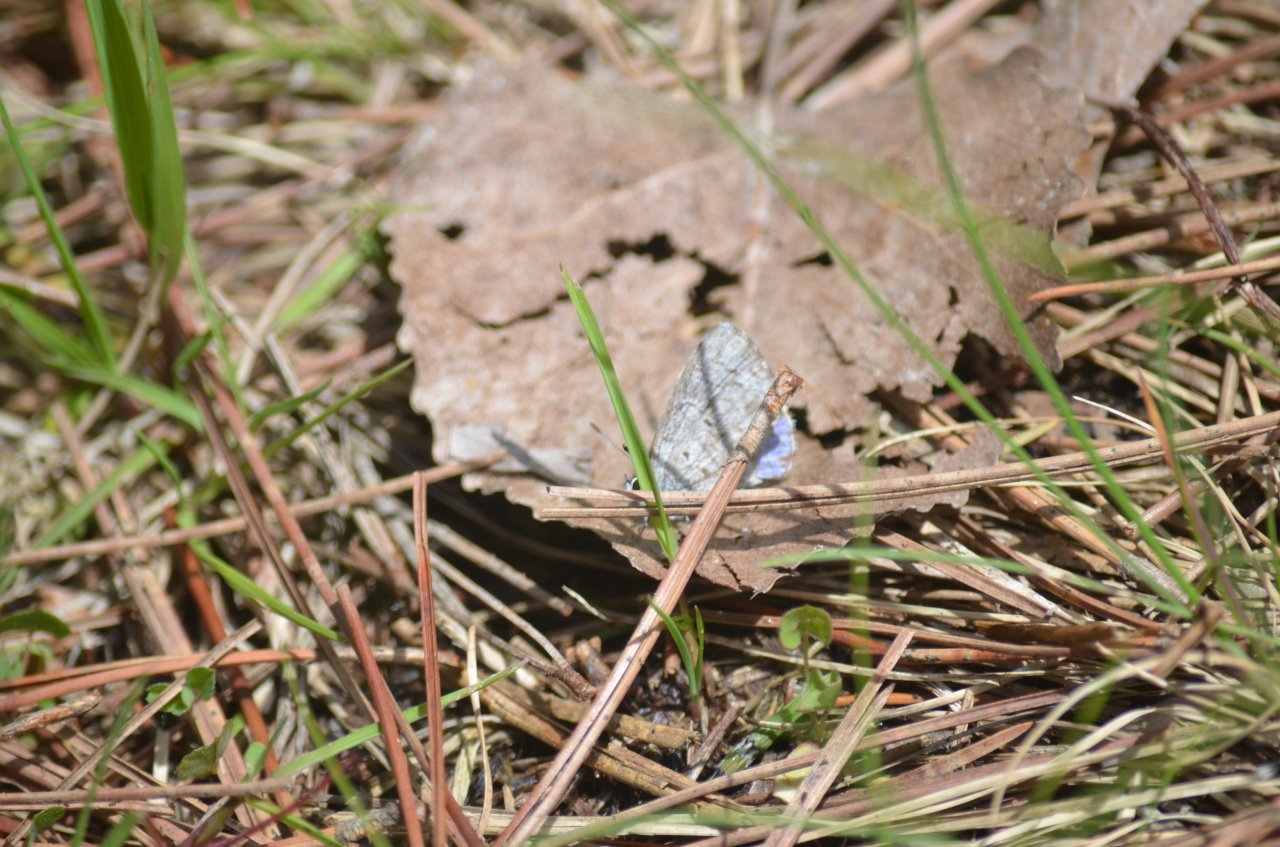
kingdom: Animalia
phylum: Arthropoda
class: Insecta
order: Lepidoptera
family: Lycaenidae
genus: Celastrina
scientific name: Celastrina
